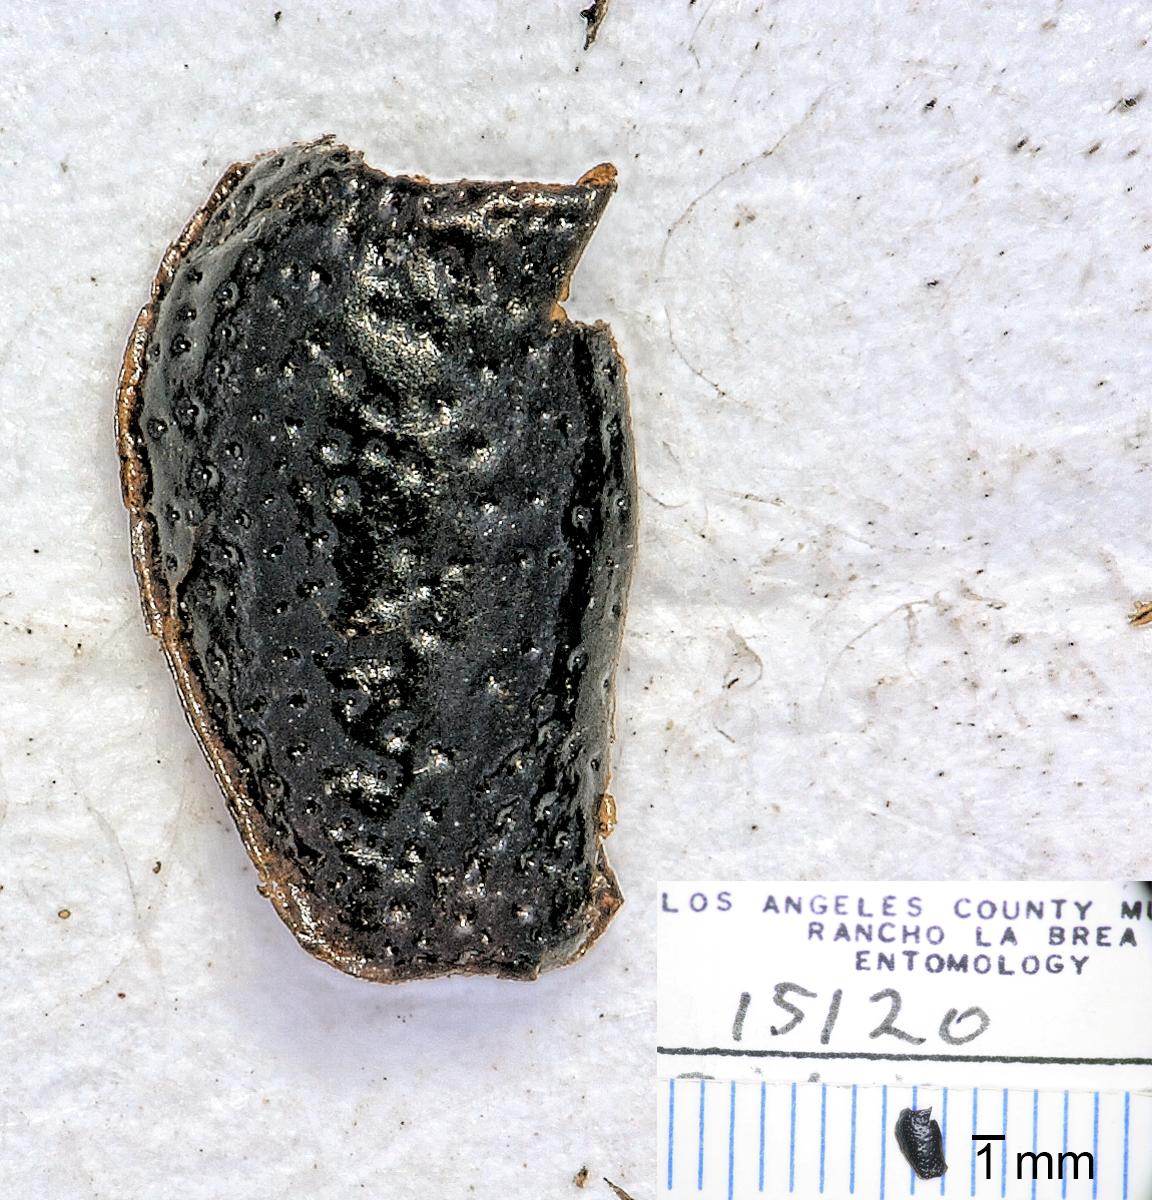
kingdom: Animalia
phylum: Arthropoda
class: Insecta
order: Coleoptera
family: Carabidae
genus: Dicheirus
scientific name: Dicheirus
